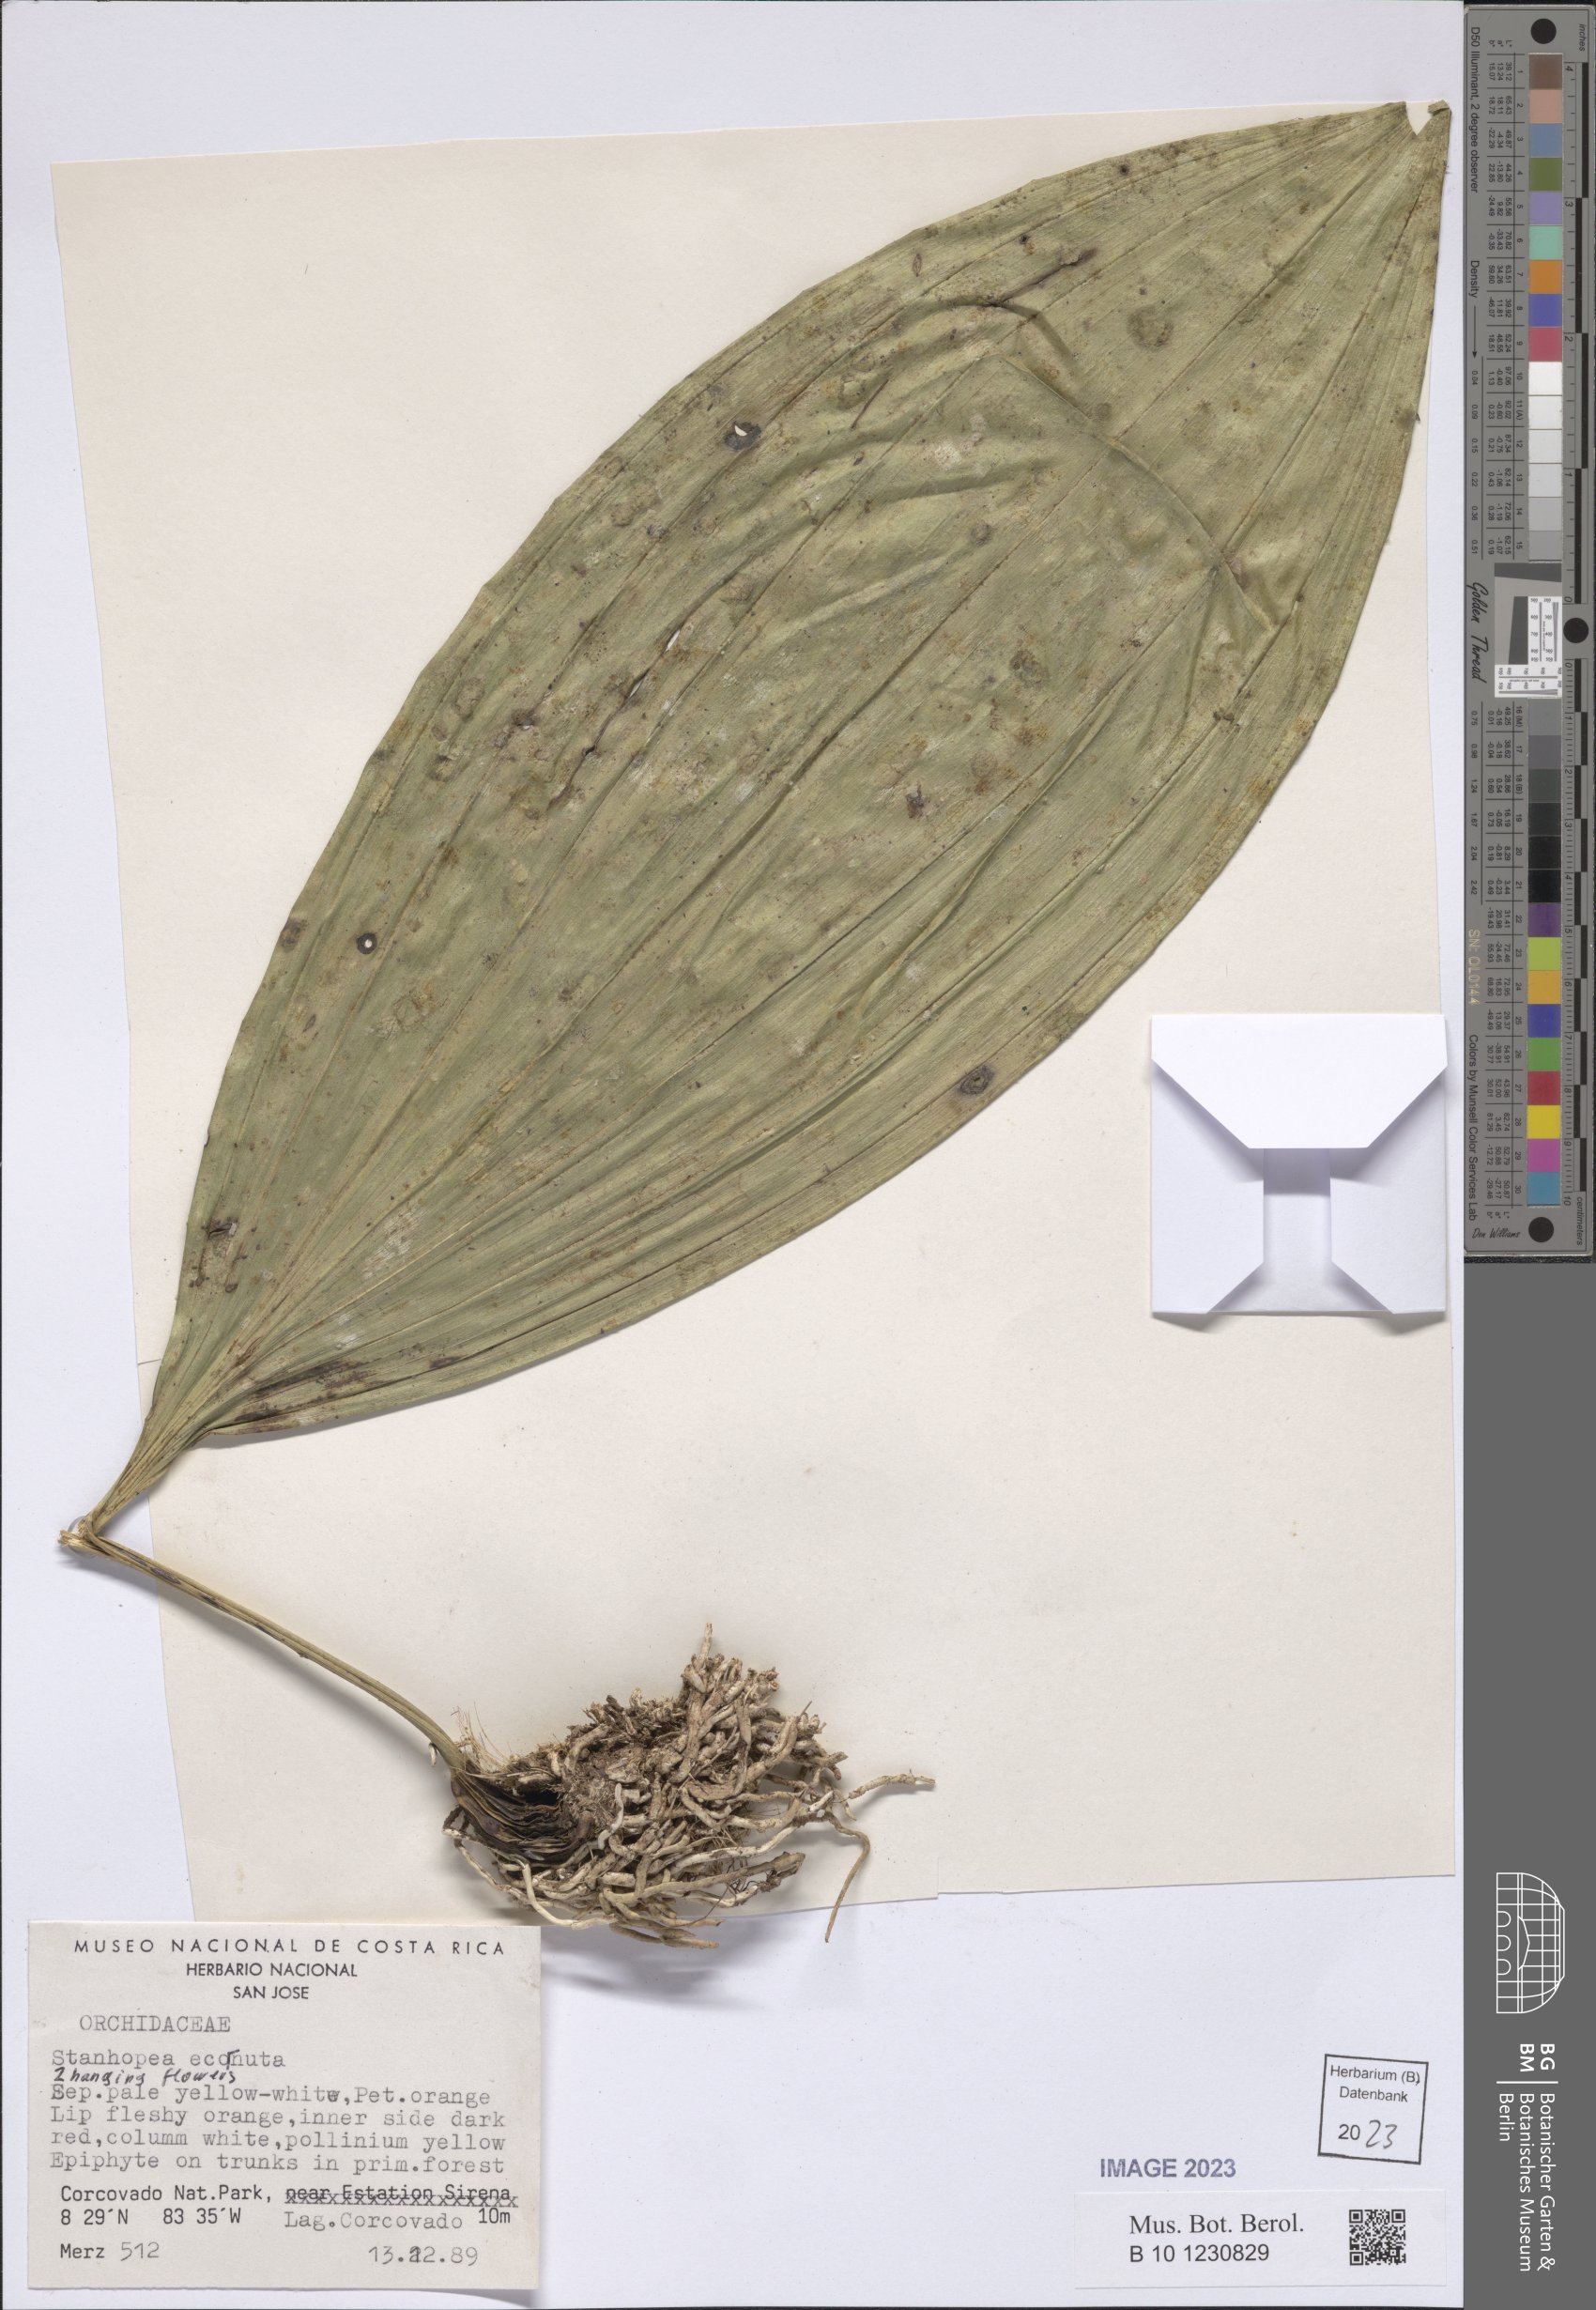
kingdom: Plantae
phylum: Tracheophyta
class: Liliopsida
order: Asparagales
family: Orchidaceae
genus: Stanhopea
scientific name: Stanhopea ecornuta
